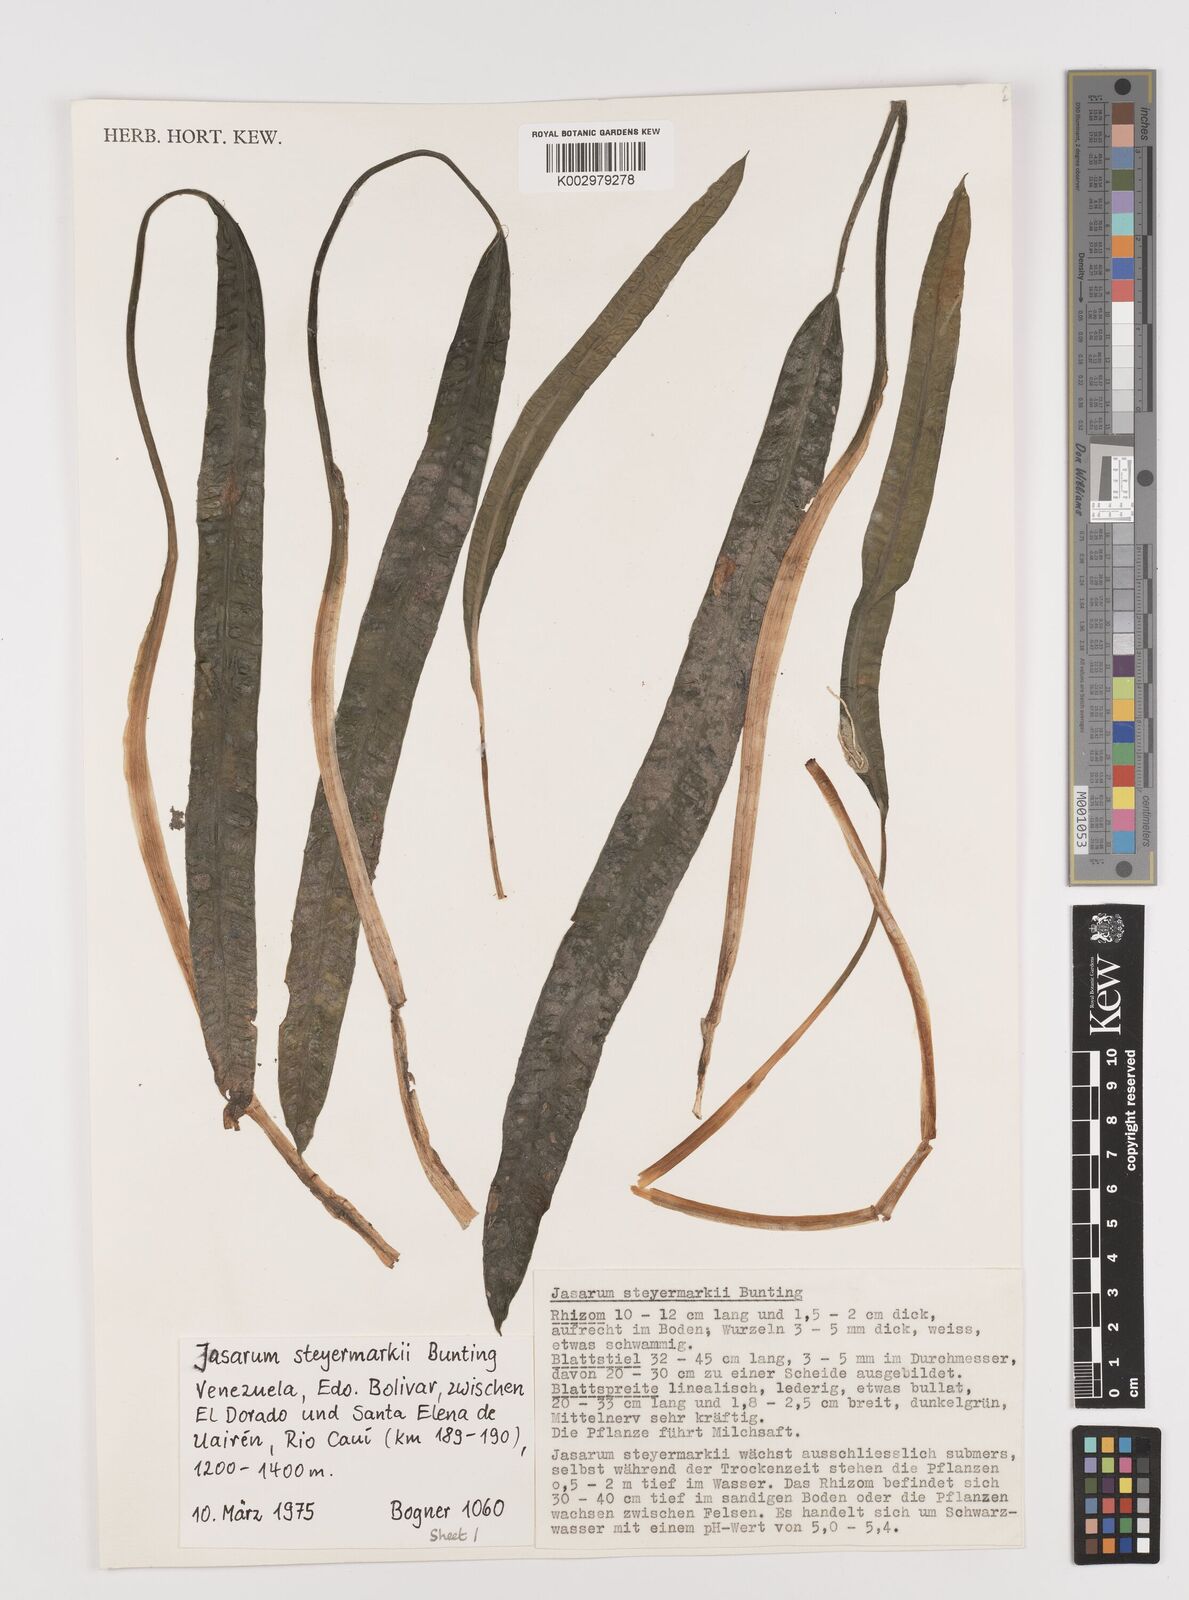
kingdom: Plantae
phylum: Tracheophyta
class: Liliopsida
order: Alismatales
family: Araceae
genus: Jasarum
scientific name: Jasarum steyermarkii
